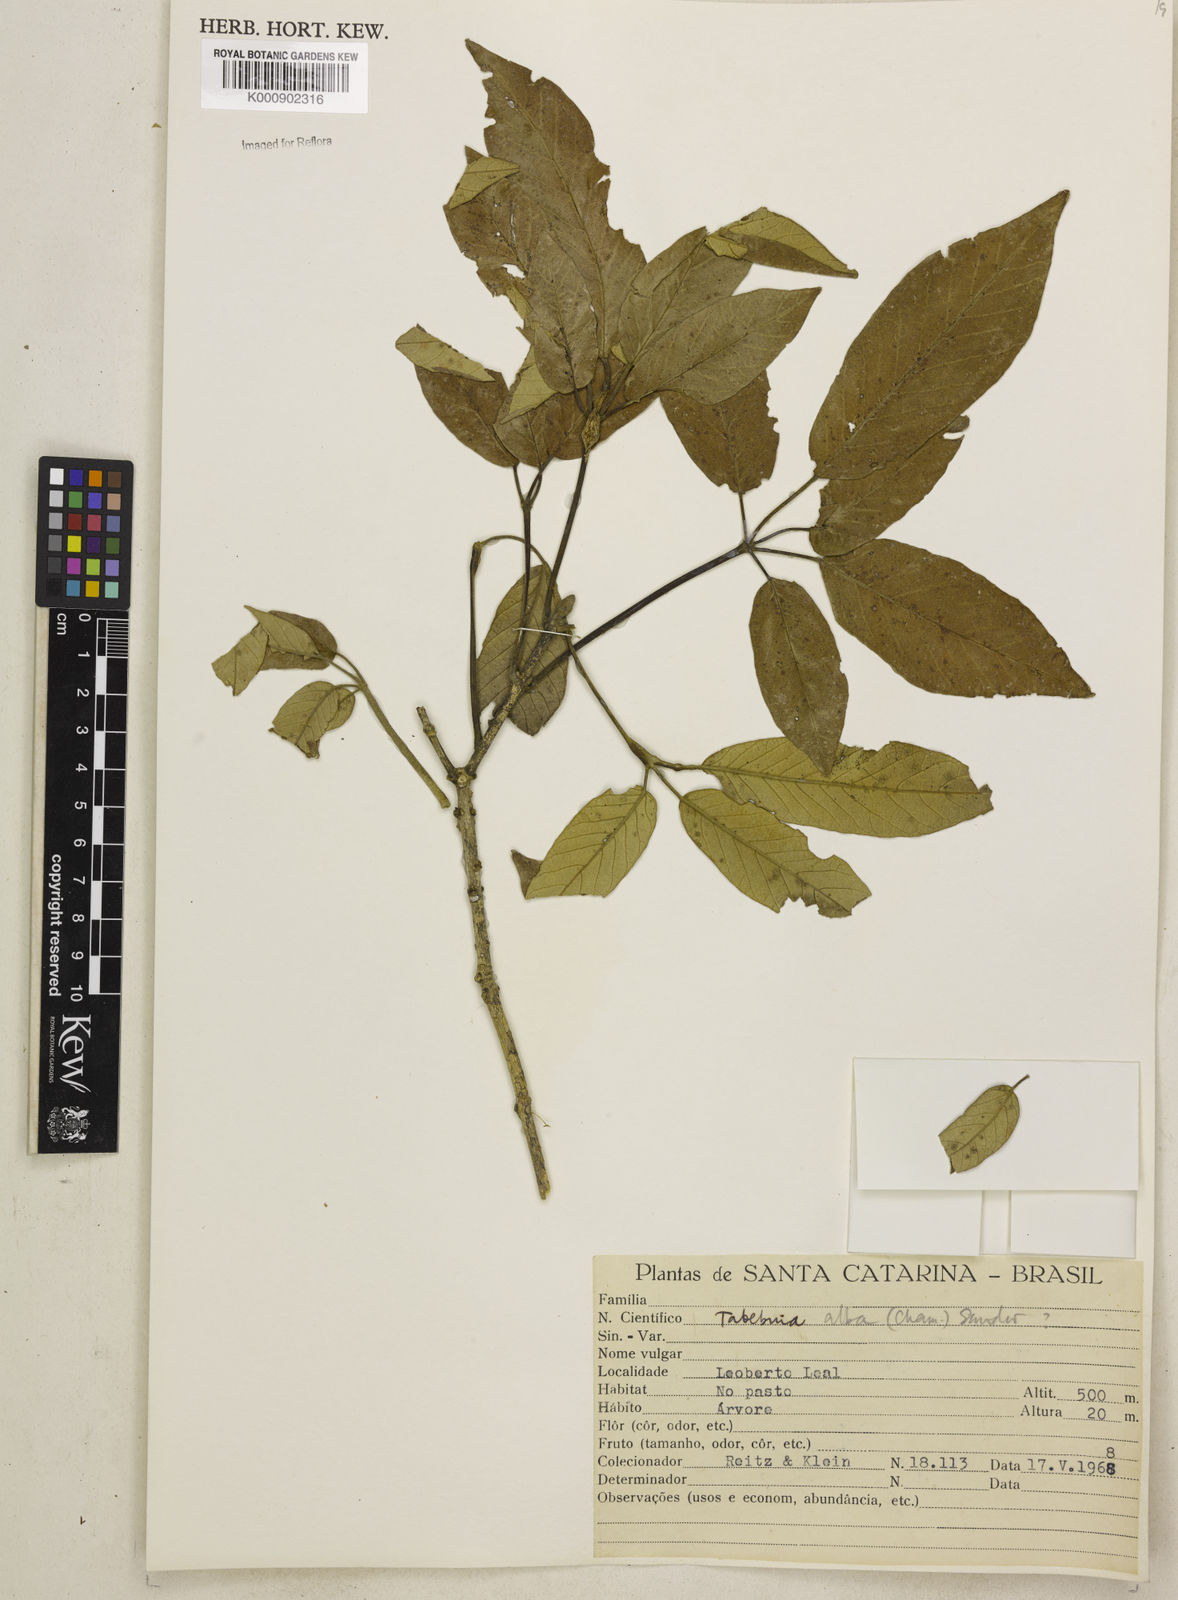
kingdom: Plantae
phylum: Tracheophyta
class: Magnoliopsida
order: Lamiales
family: Bignoniaceae
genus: Handroanthus
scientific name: Handroanthus albus
